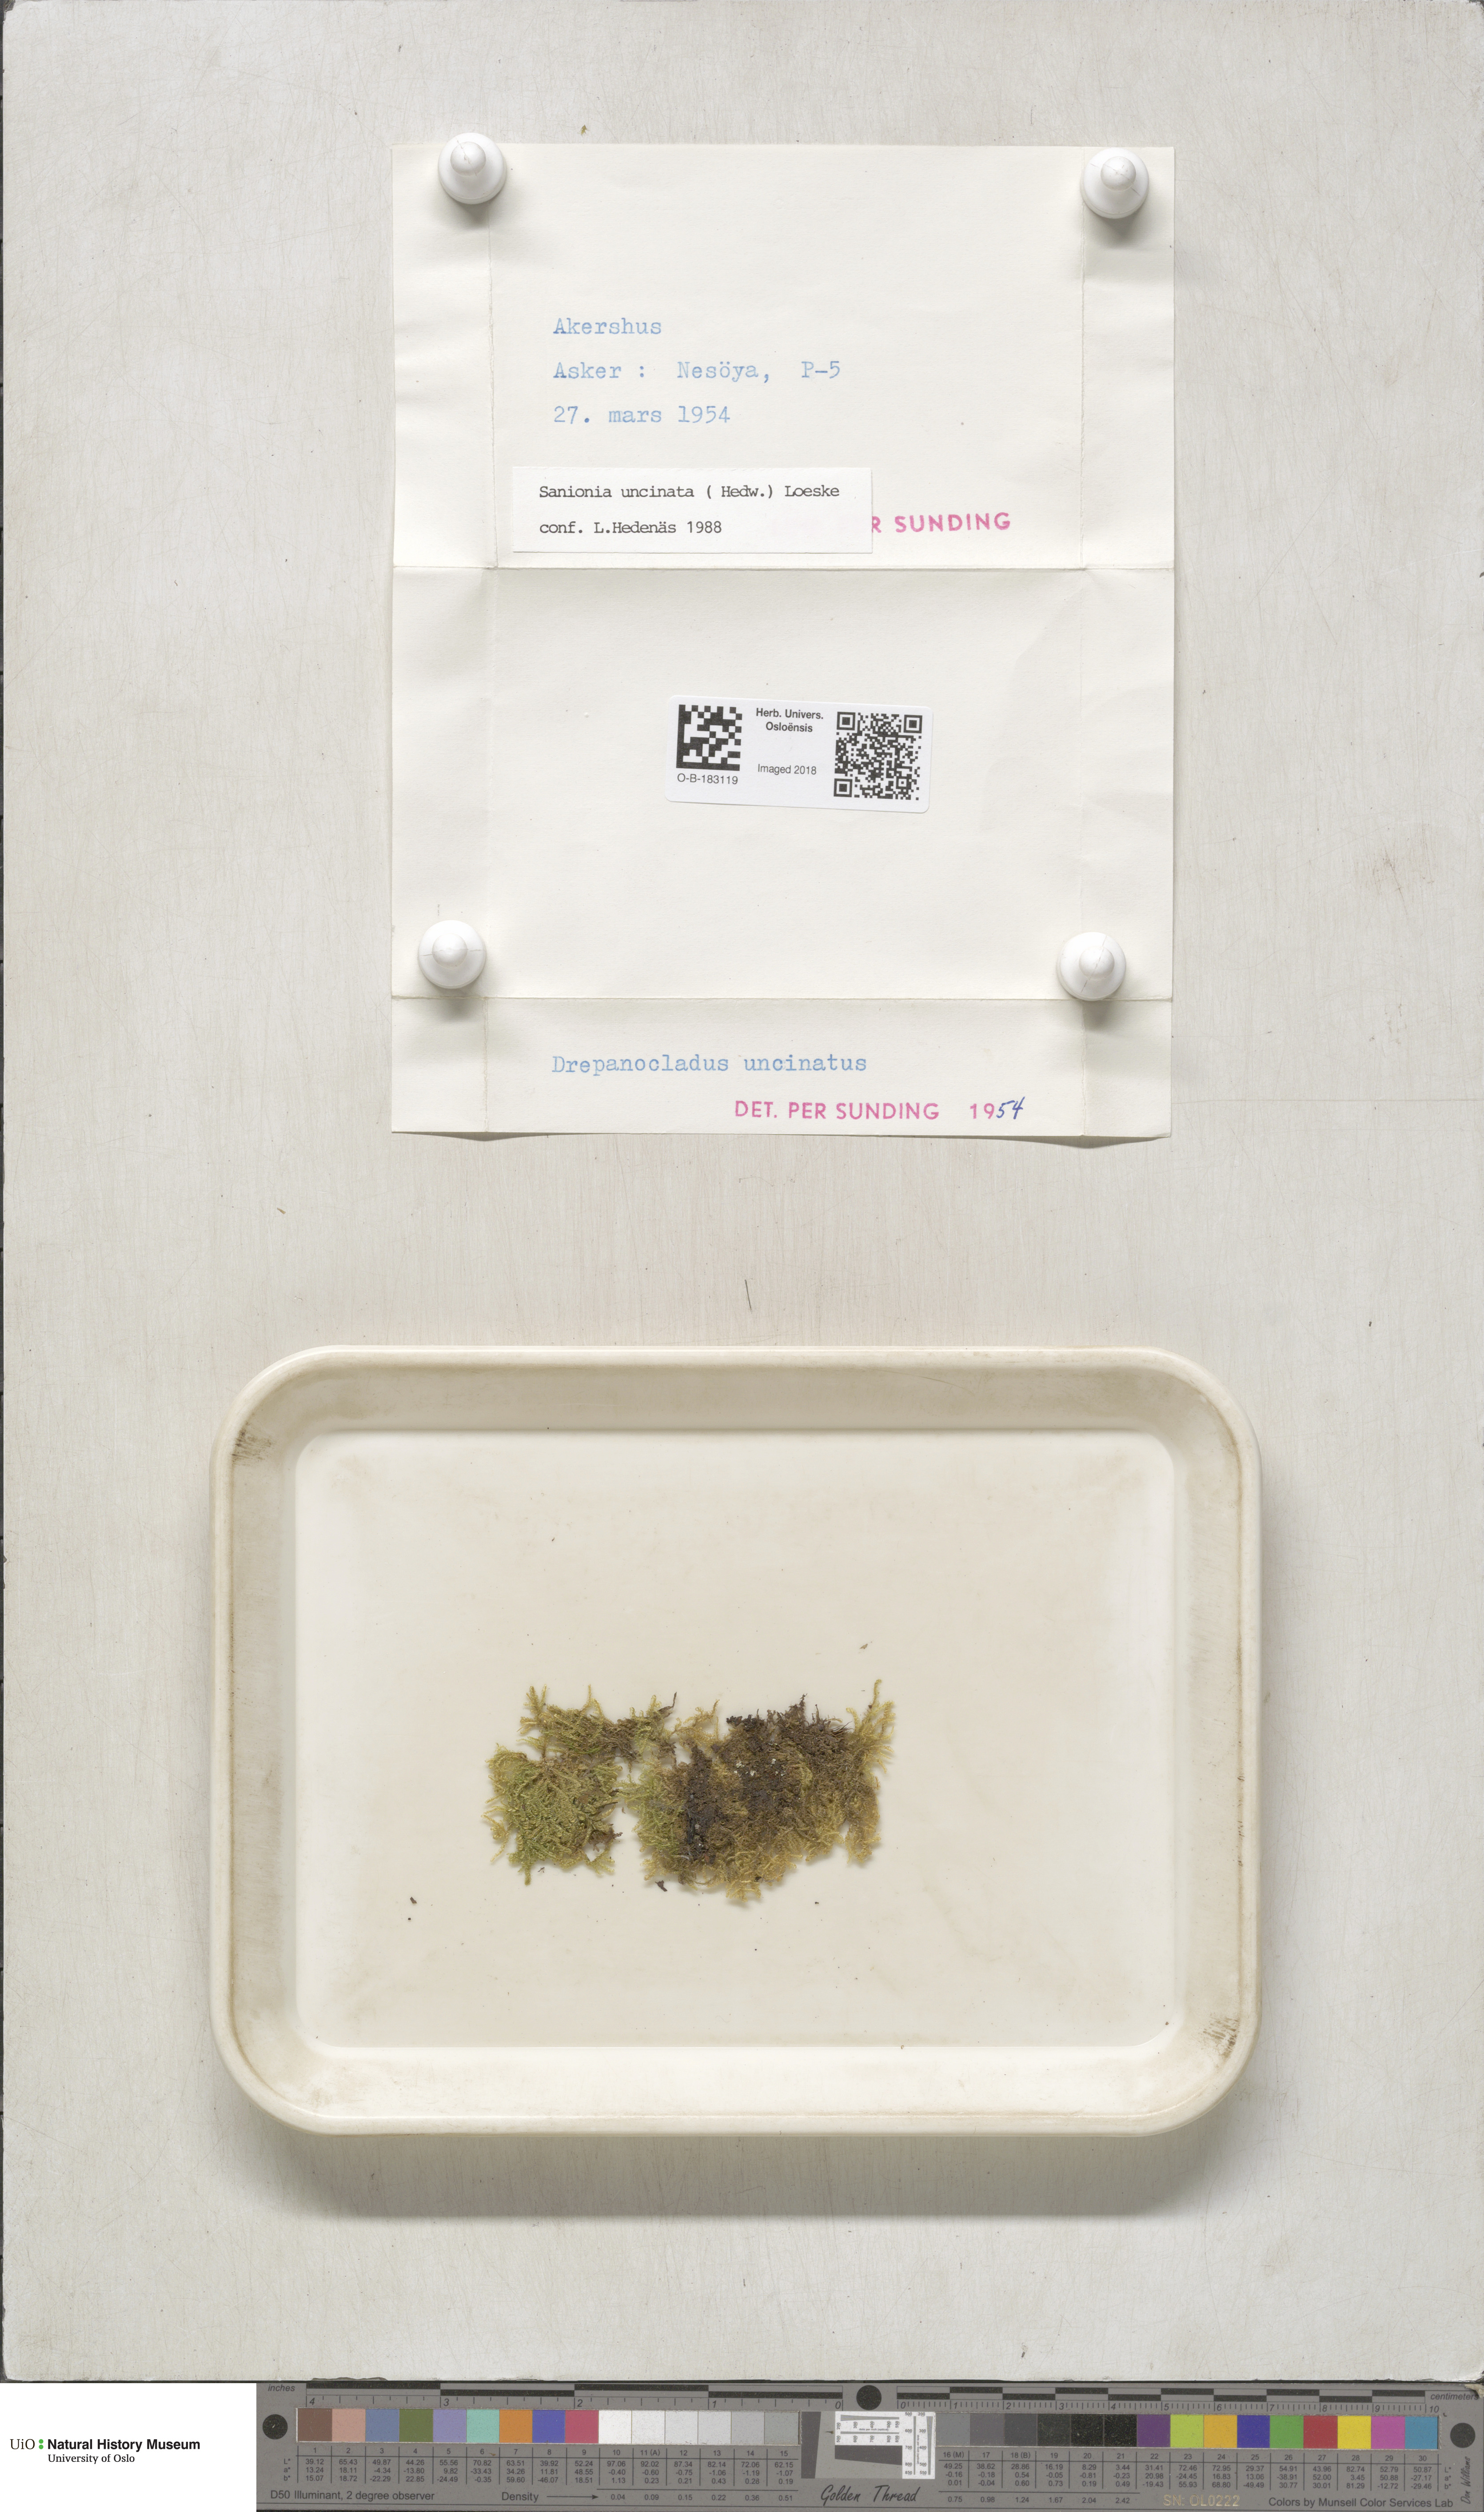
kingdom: Plantae
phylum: Bryophyta
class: Bryopsida
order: Hypnales
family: Scorpidiaceae
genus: Sanionia
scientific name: Sanionia uncinata
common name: Sickle moss
